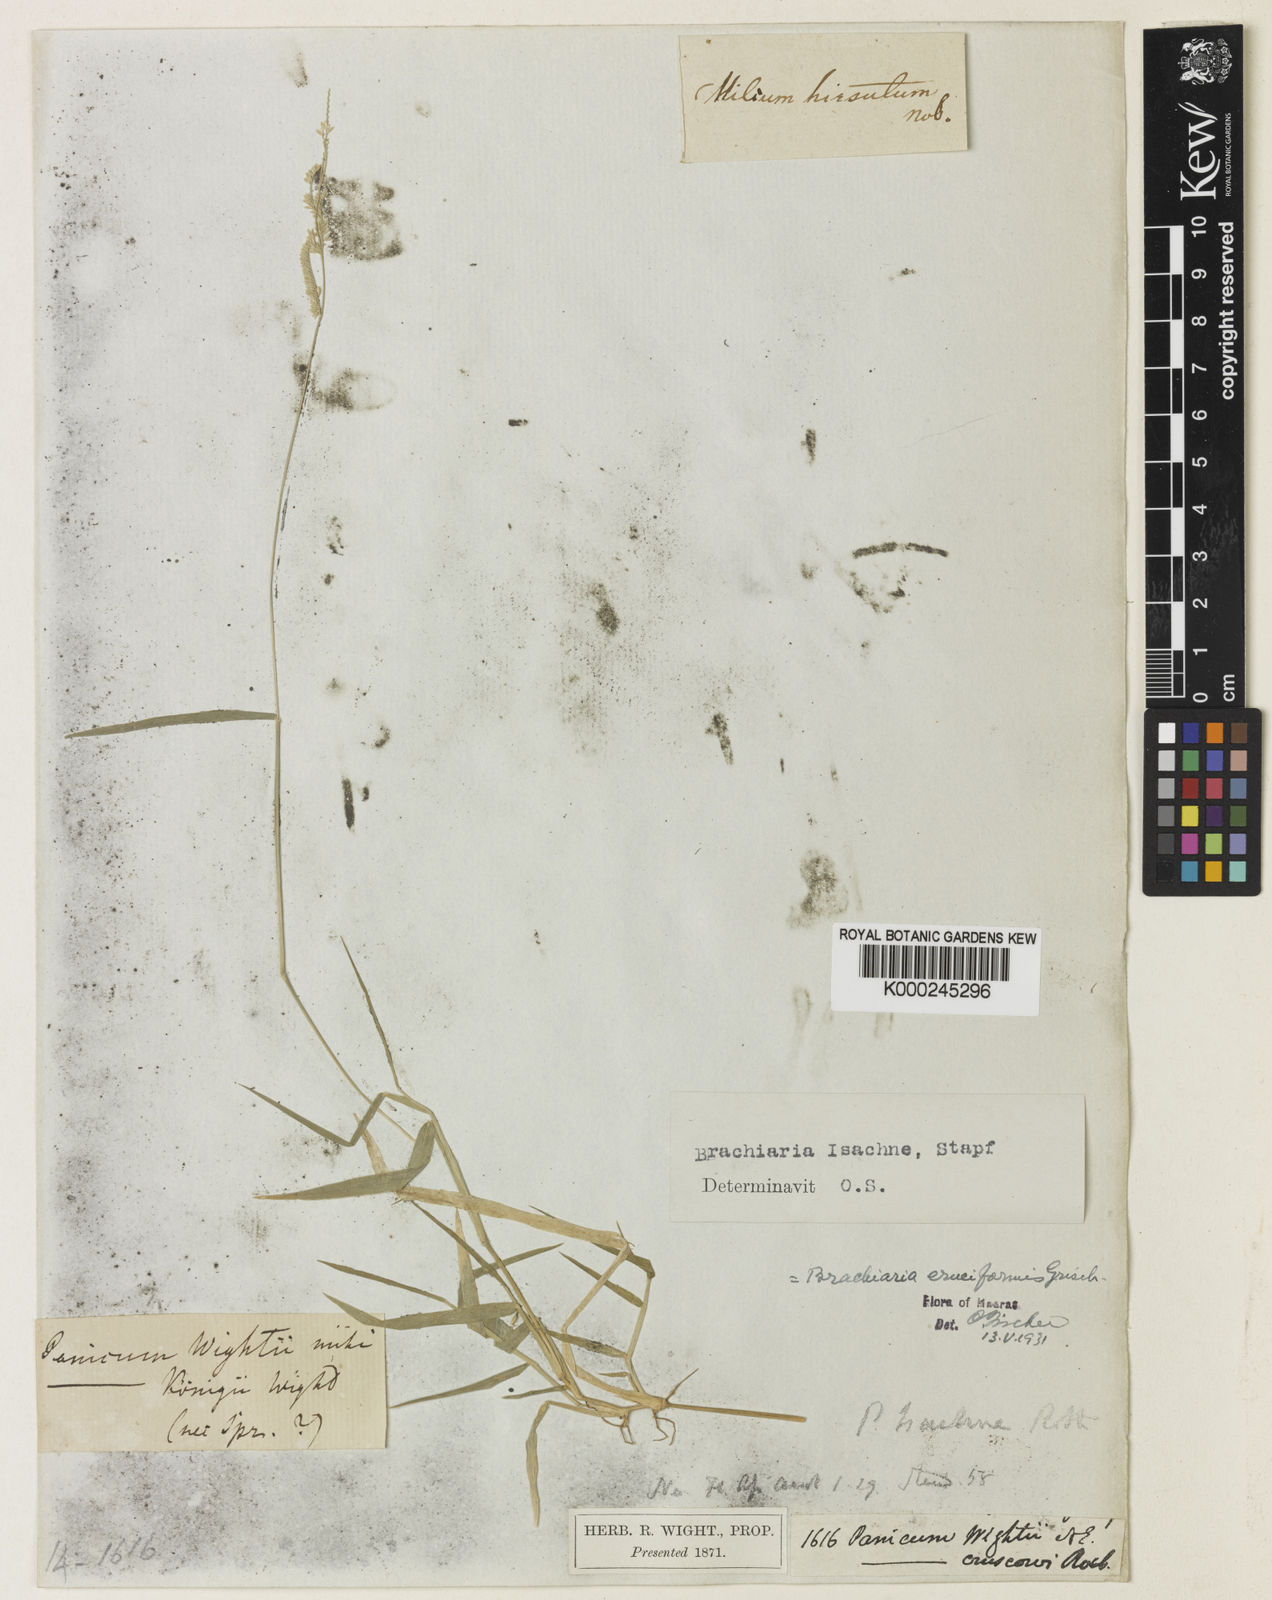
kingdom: Plantae
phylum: Tracheophyta
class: Liliopsida
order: Poales
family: Poaceae
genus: Moorochloa
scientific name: Moorochloa eruciformis
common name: Sweet signalgrass
